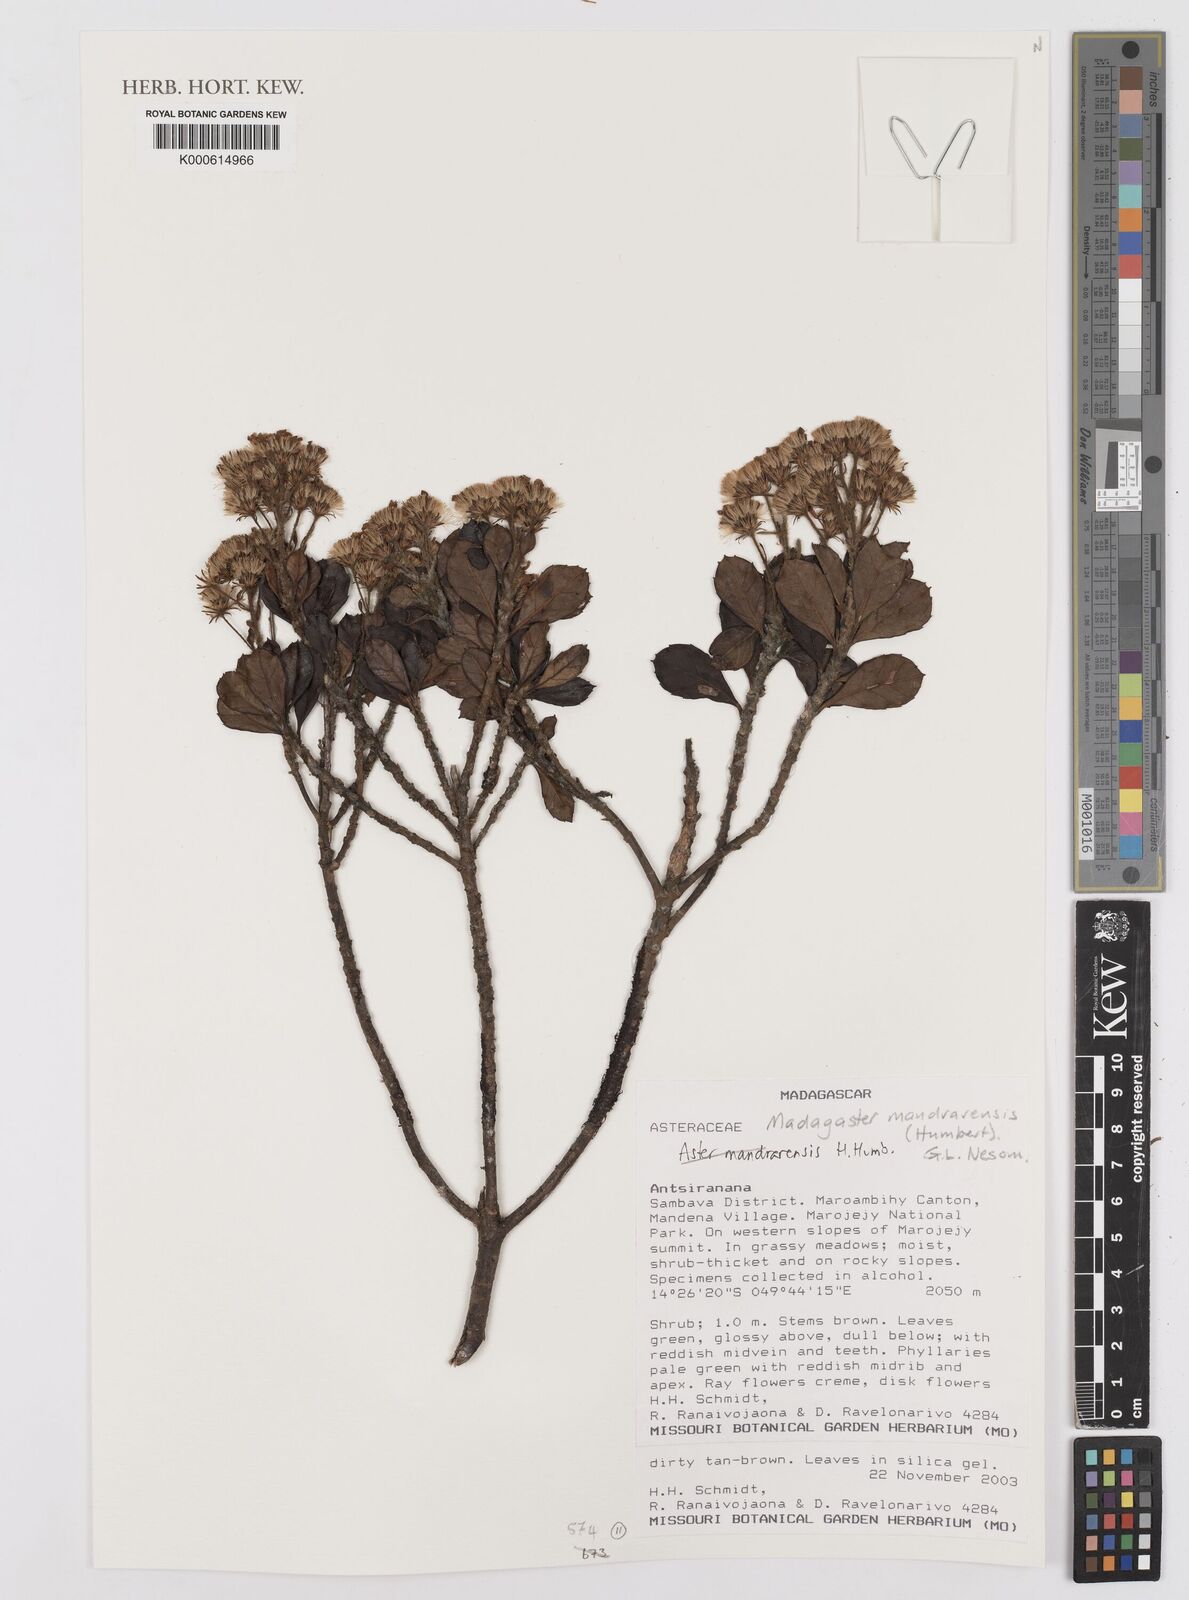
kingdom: Plantae
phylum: Tracheophyta
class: Magnoliopsida
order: Asterales
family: Asteraceae
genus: Madagaster
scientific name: Madagaster mandrarensis
